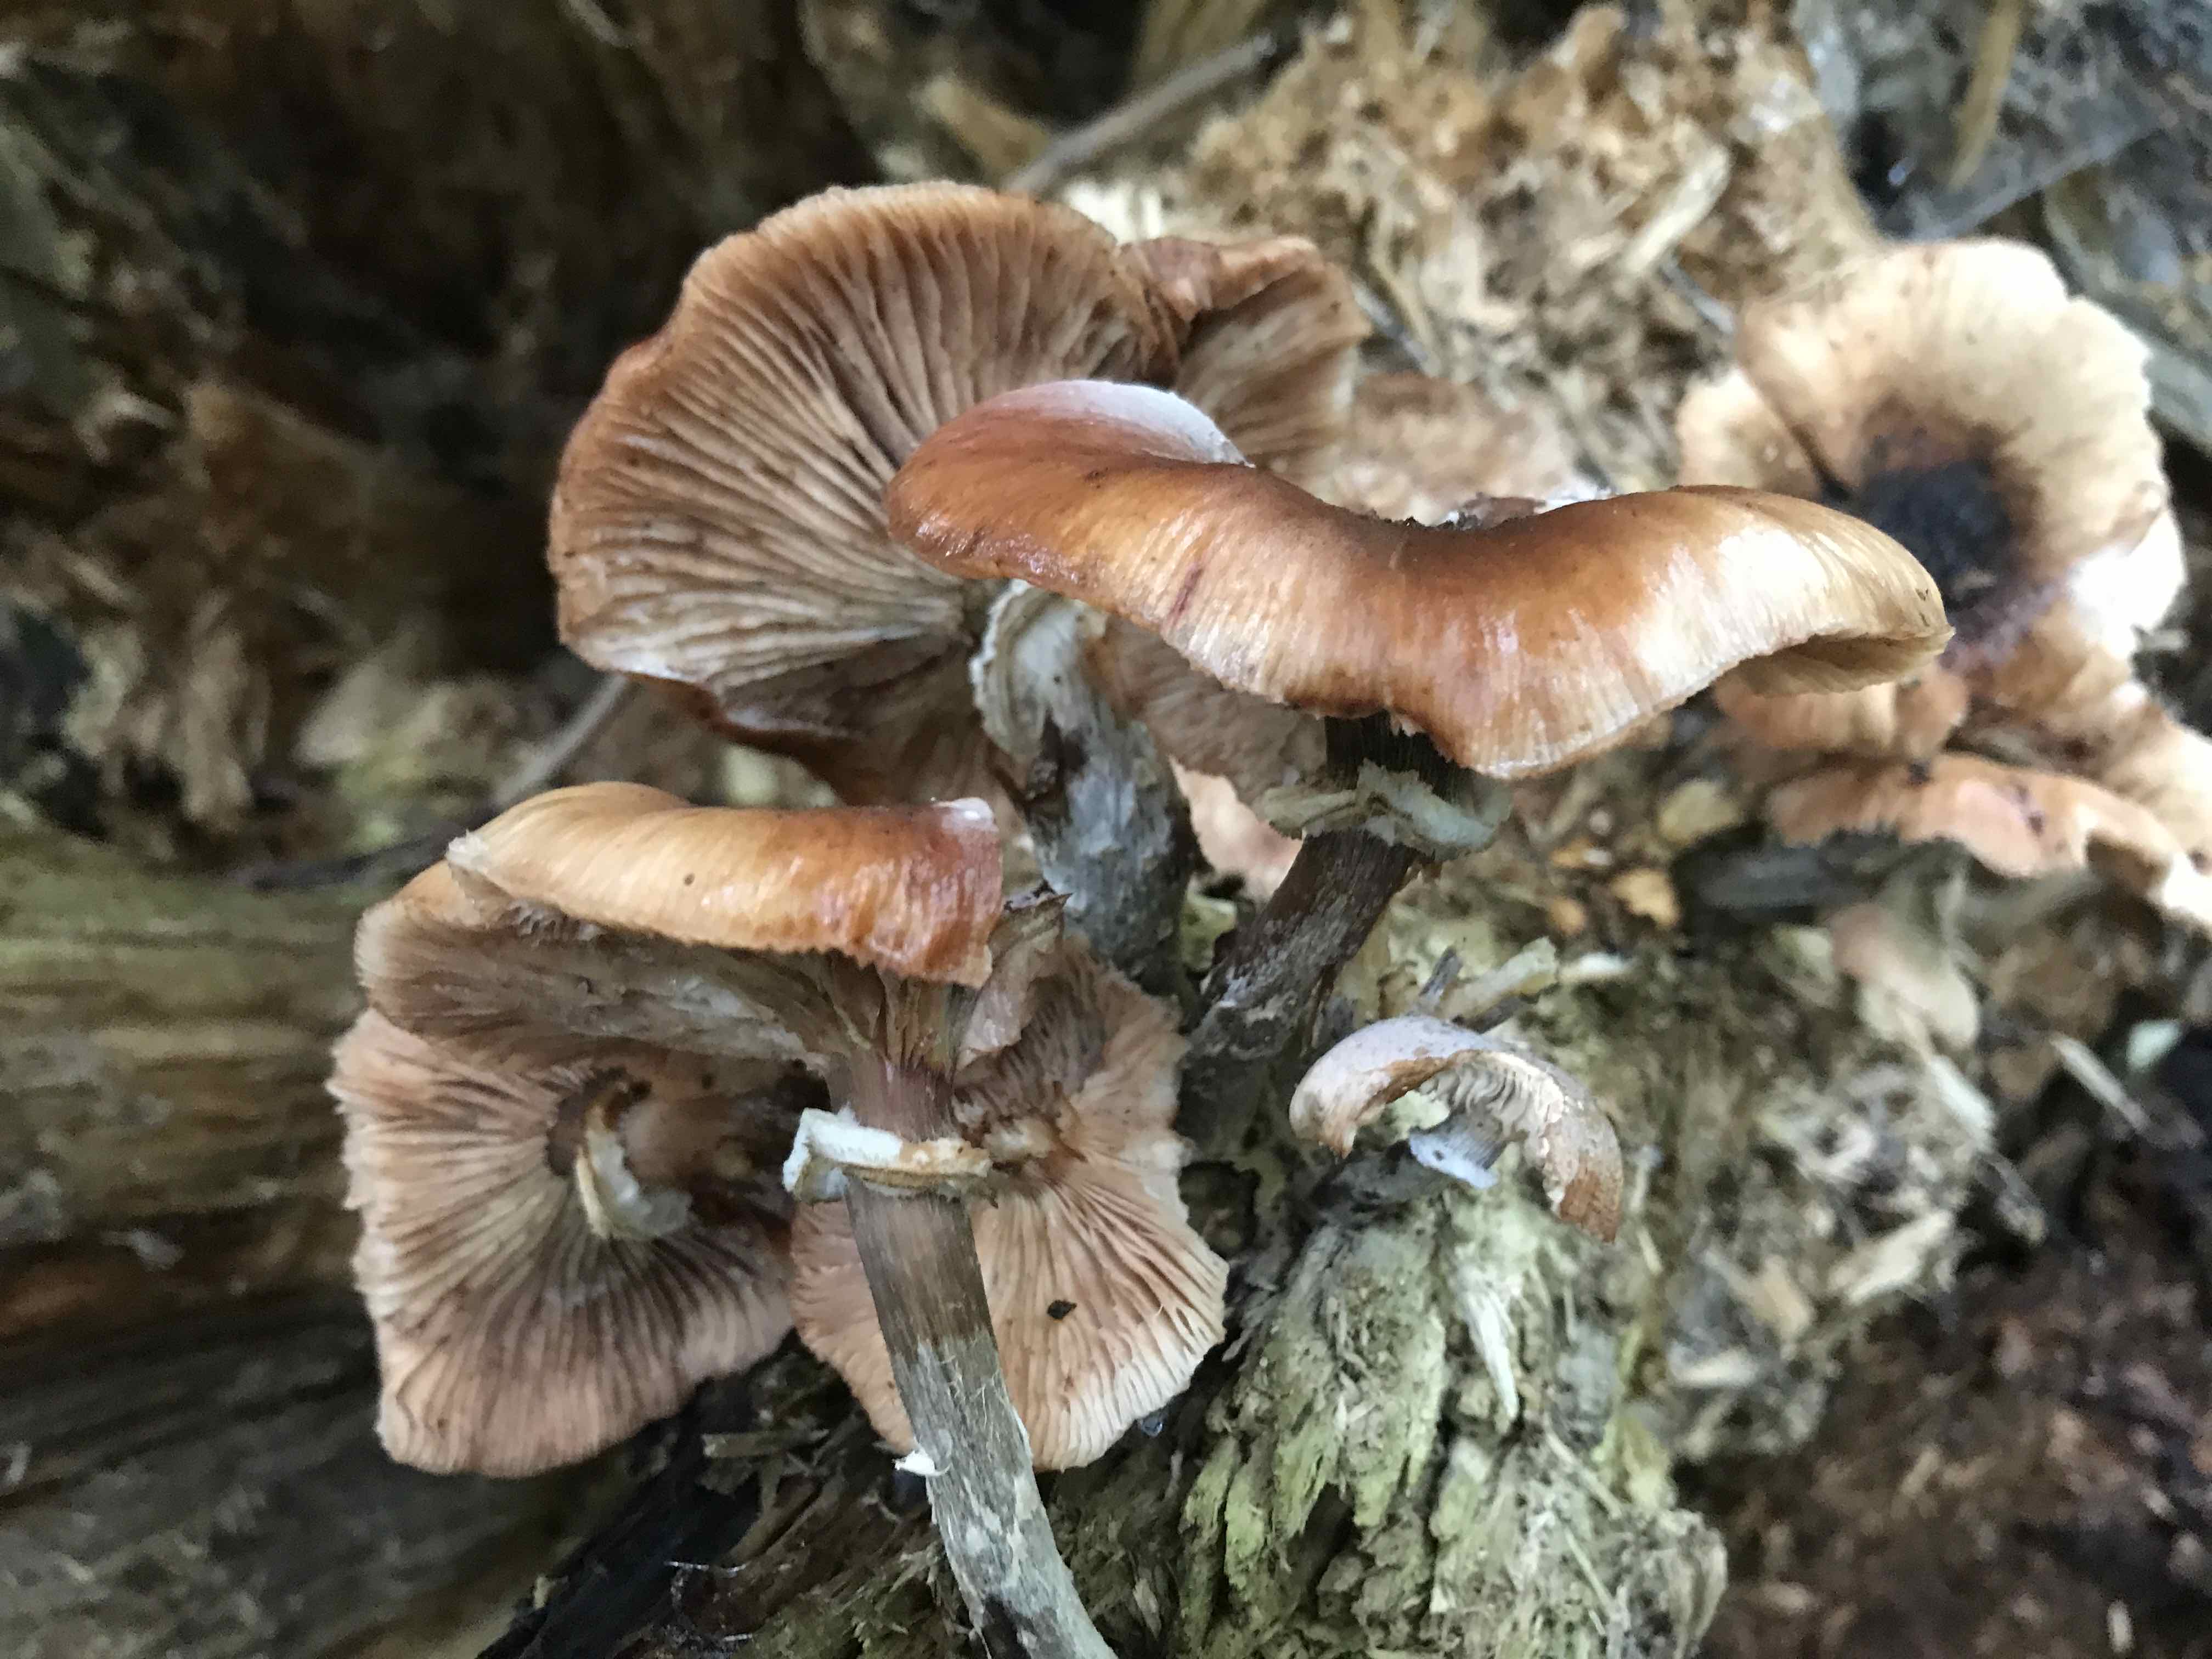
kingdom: Fungi
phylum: Basidiomycota
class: Agaricomycetes
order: Agaricales
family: Physalacriaceae
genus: Armillaria
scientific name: Armillaria lutea
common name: køllestokket honningsvamp
